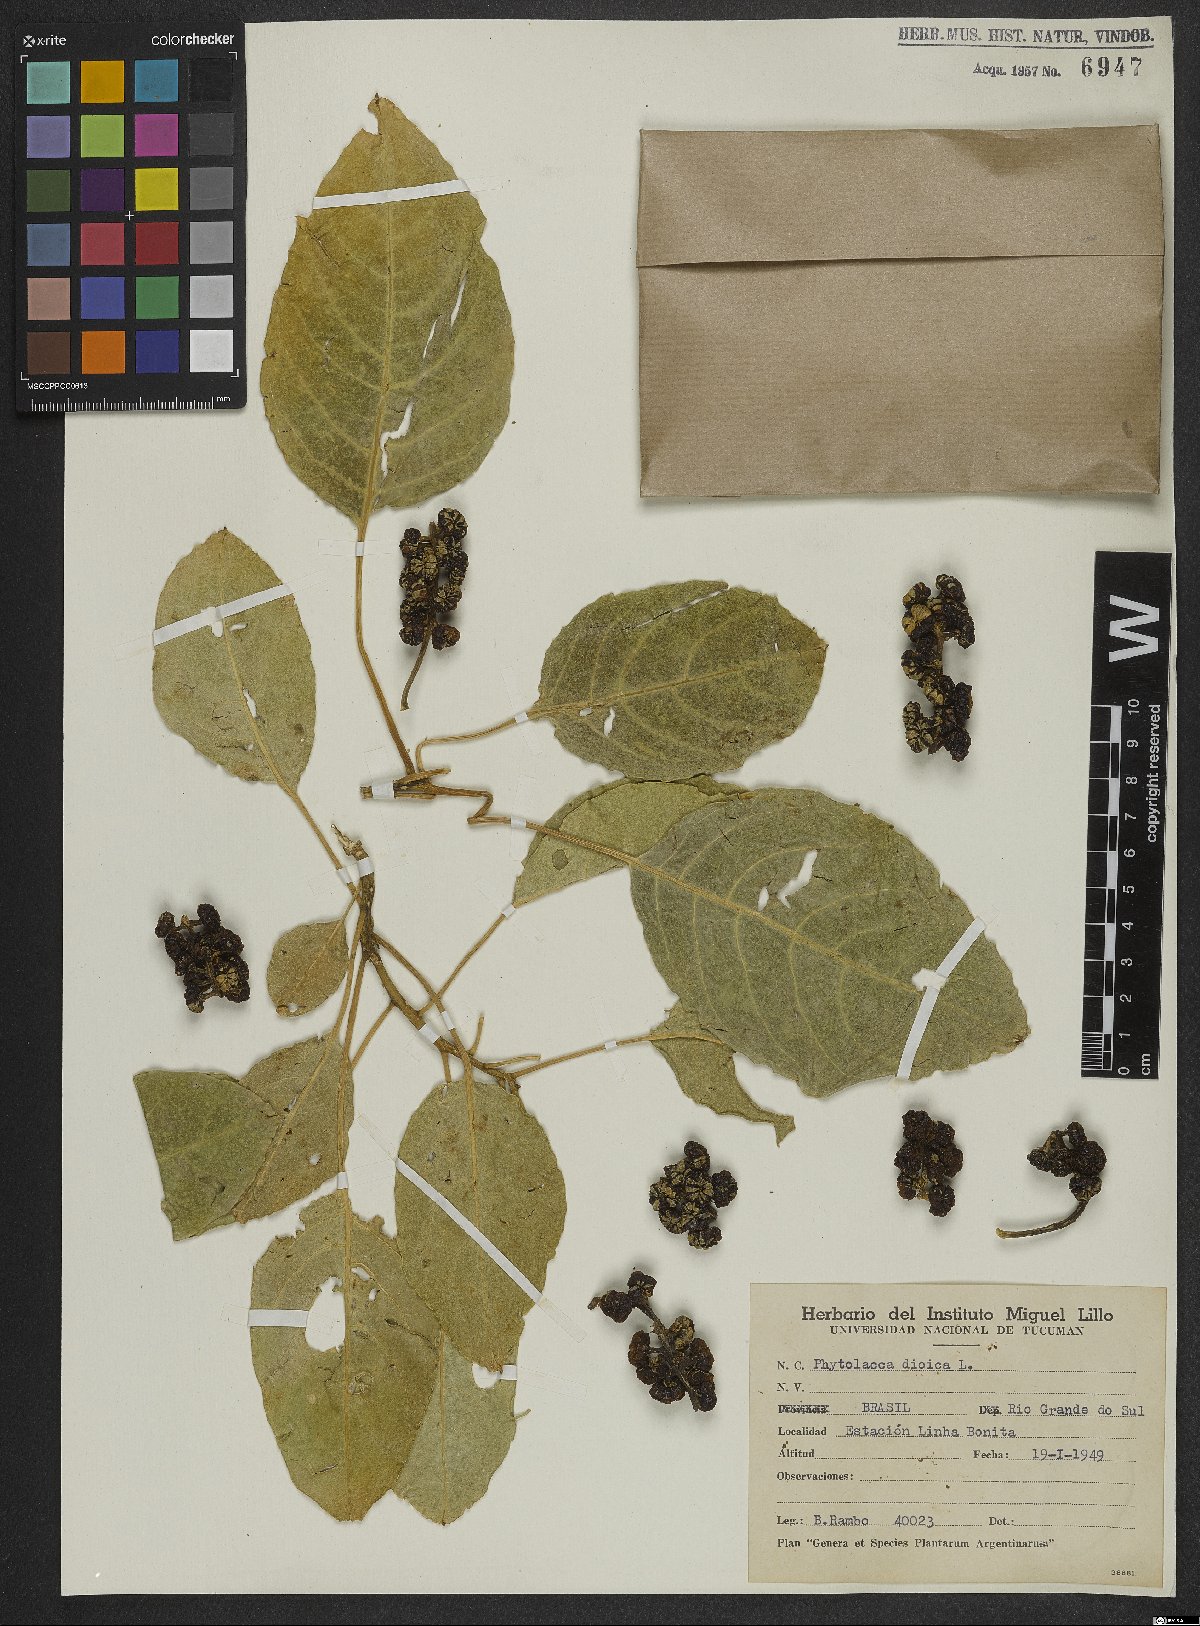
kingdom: Plantae
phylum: Tracheophyta
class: Magnoliopsida
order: Caryophyllales
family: Phytolaccaceae
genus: Phytolacca
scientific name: Phytolacca dioica
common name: Pokeweed
